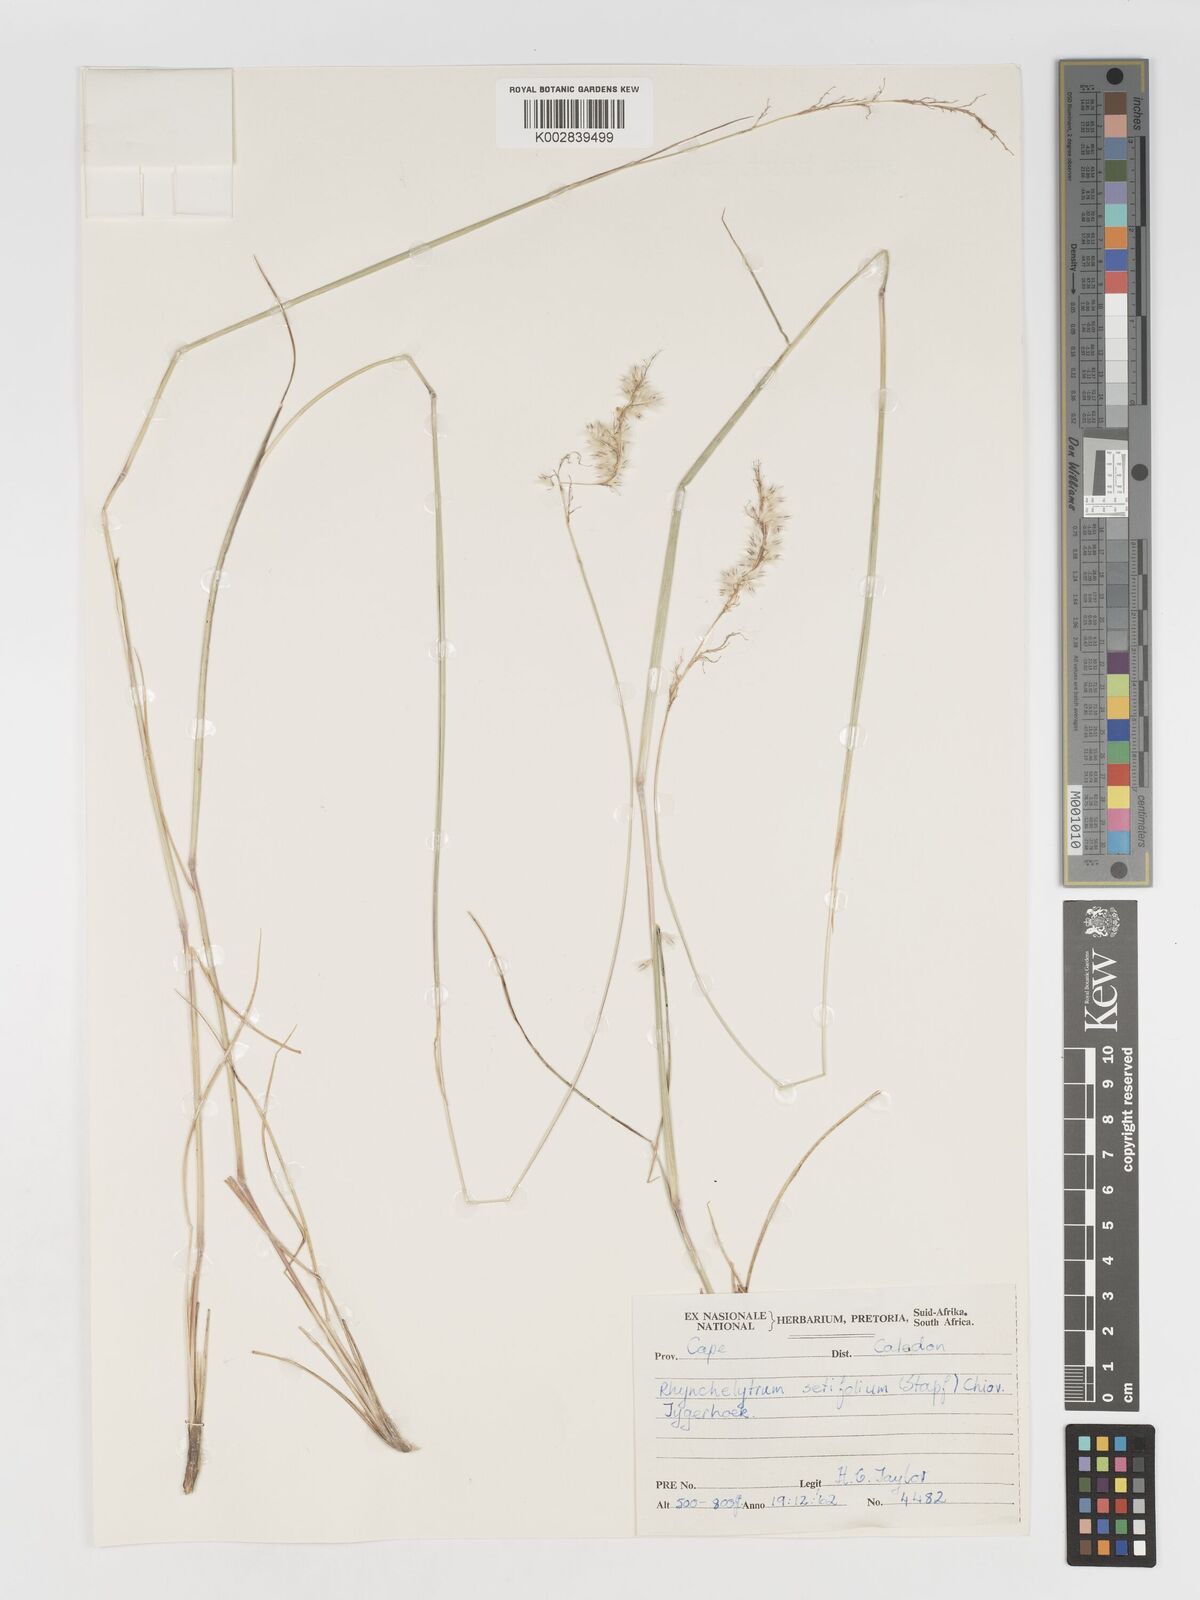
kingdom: Plantae
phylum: Tracheophyta
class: Liliopsida
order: Poales
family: Poaceae
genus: Melinis
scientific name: Melinis nerviglumis
